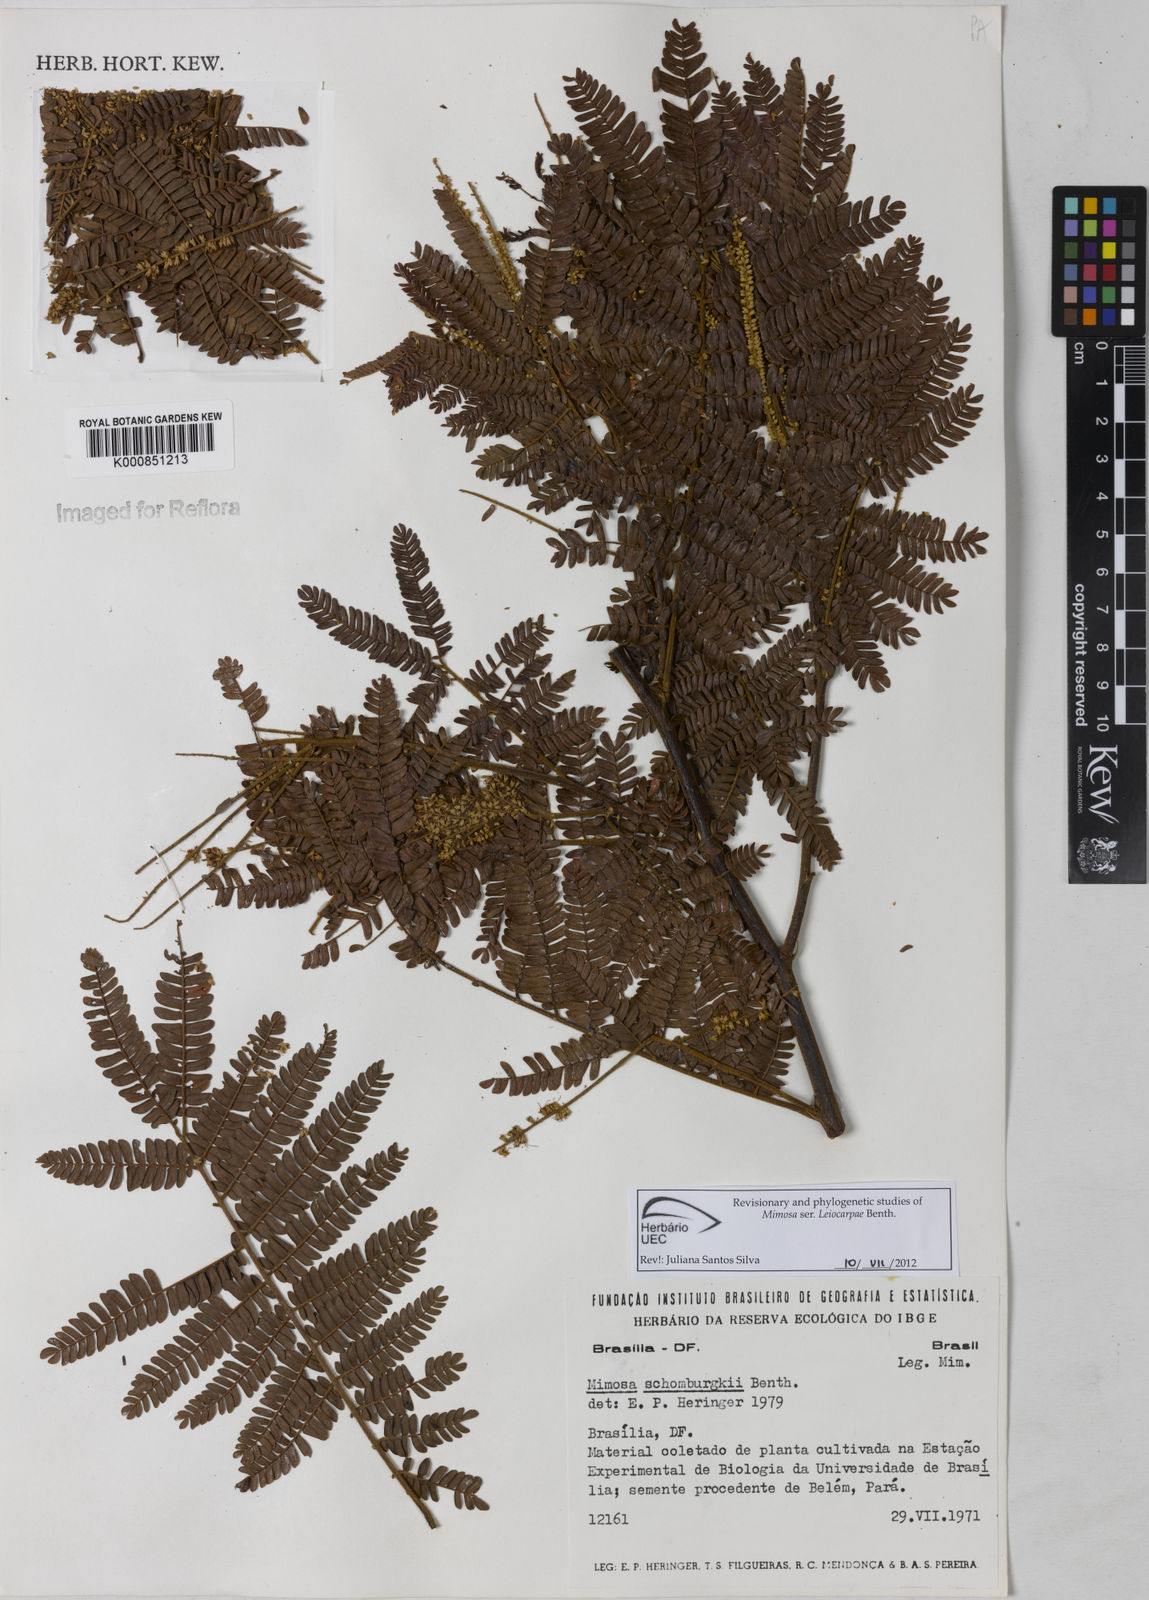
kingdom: Plantae
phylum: Tracheophyta
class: Magnoliopsida
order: Fabales
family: Fabaceae
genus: Mimosa
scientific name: Mimosa schomburgkii
